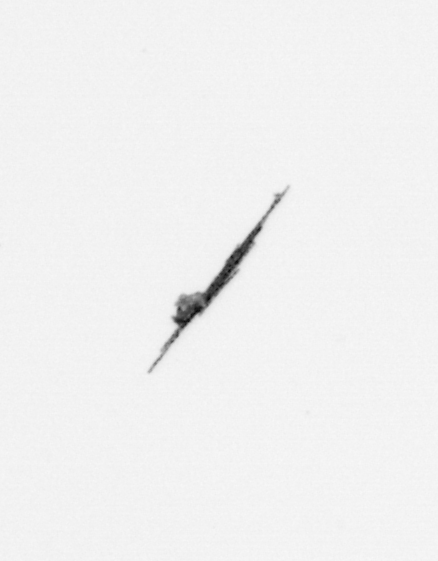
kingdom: Bacteria
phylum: Cyanobacteria
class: Cyanobacteriia
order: Cyanobacteriales
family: Microcoleaceae
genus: Trichodesmium
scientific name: Trichodesmium
